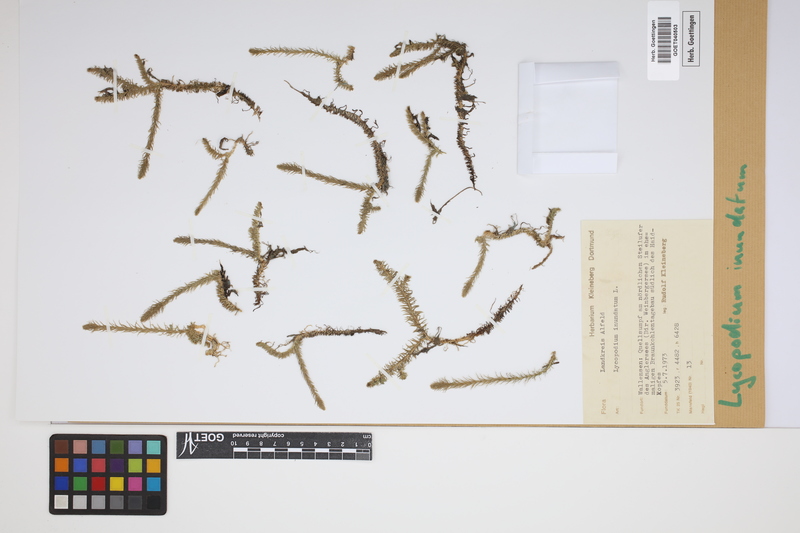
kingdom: Plantae
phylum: Tracheophyta
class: Lycopodiopsida
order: Lycopodiales
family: Lycopodiaceae
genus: Lycopodiella
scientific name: Lycopodiella inundata
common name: Marsh clubmoss
